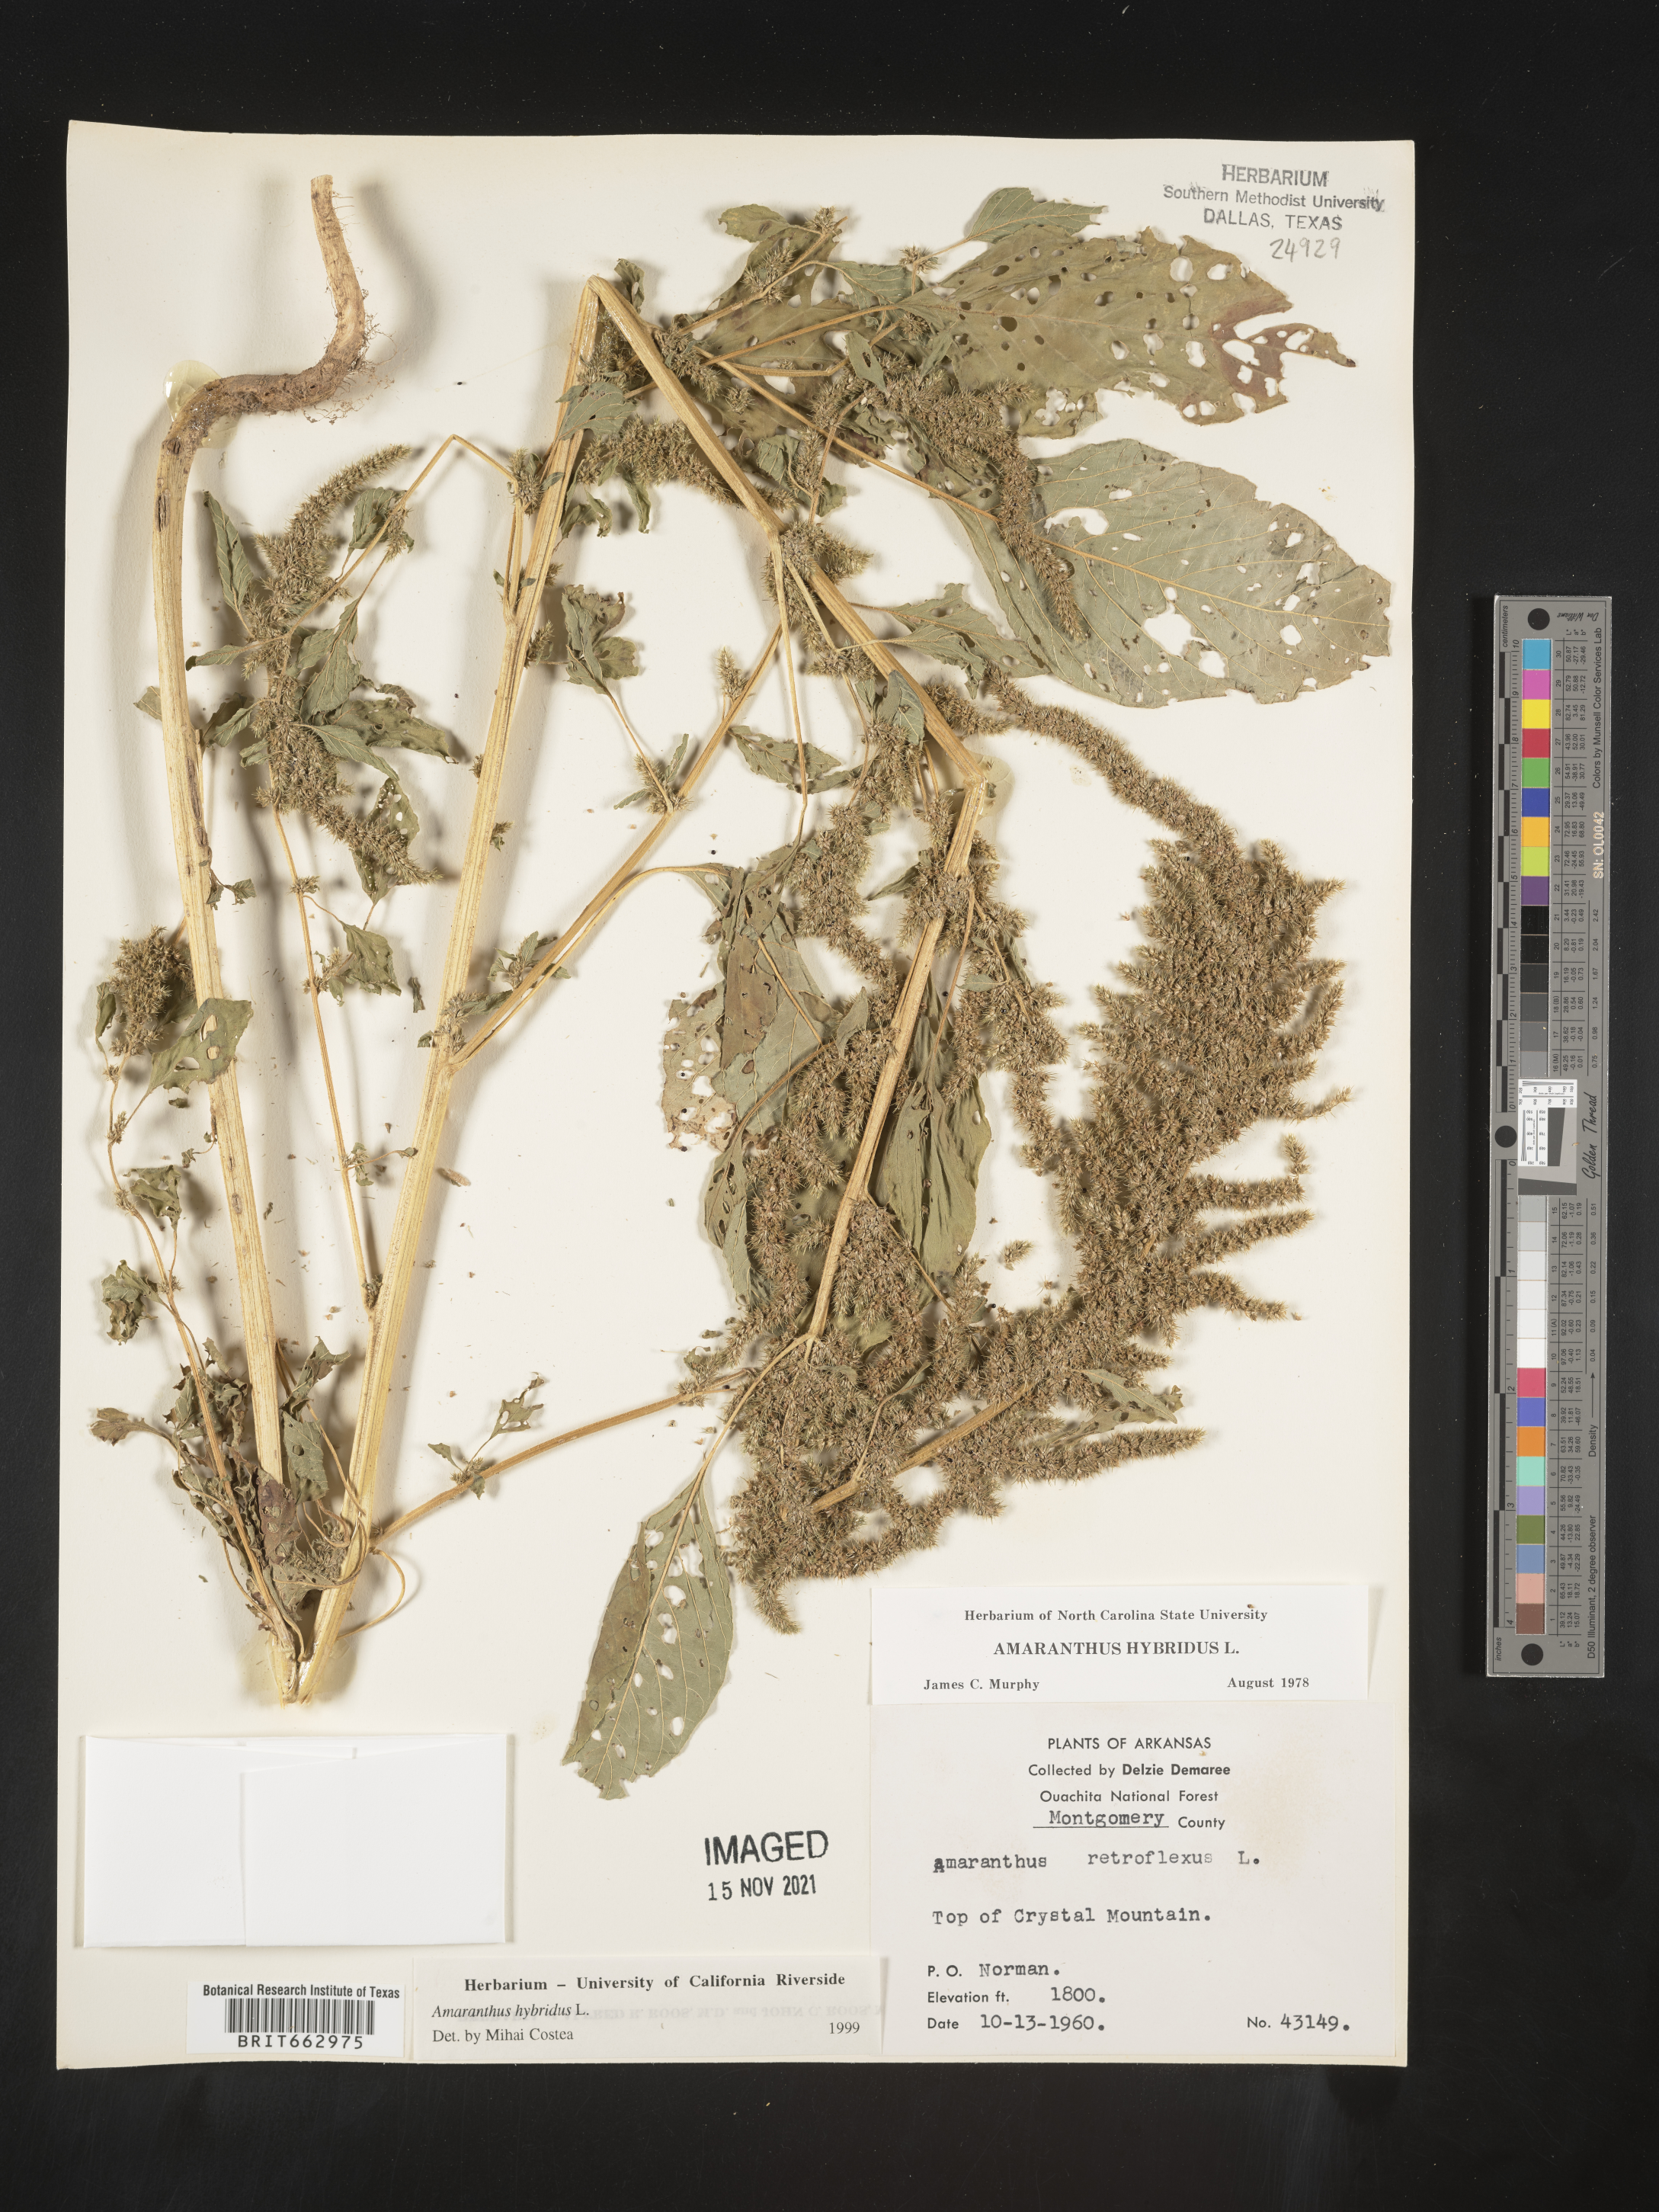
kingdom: Plantae
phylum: Tracheophyta
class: Magnoliopsida
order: Caryophyllales
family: Amaranthaceae
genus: Amaranthus
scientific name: Amaranthus hybridus
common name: Green amaranth
